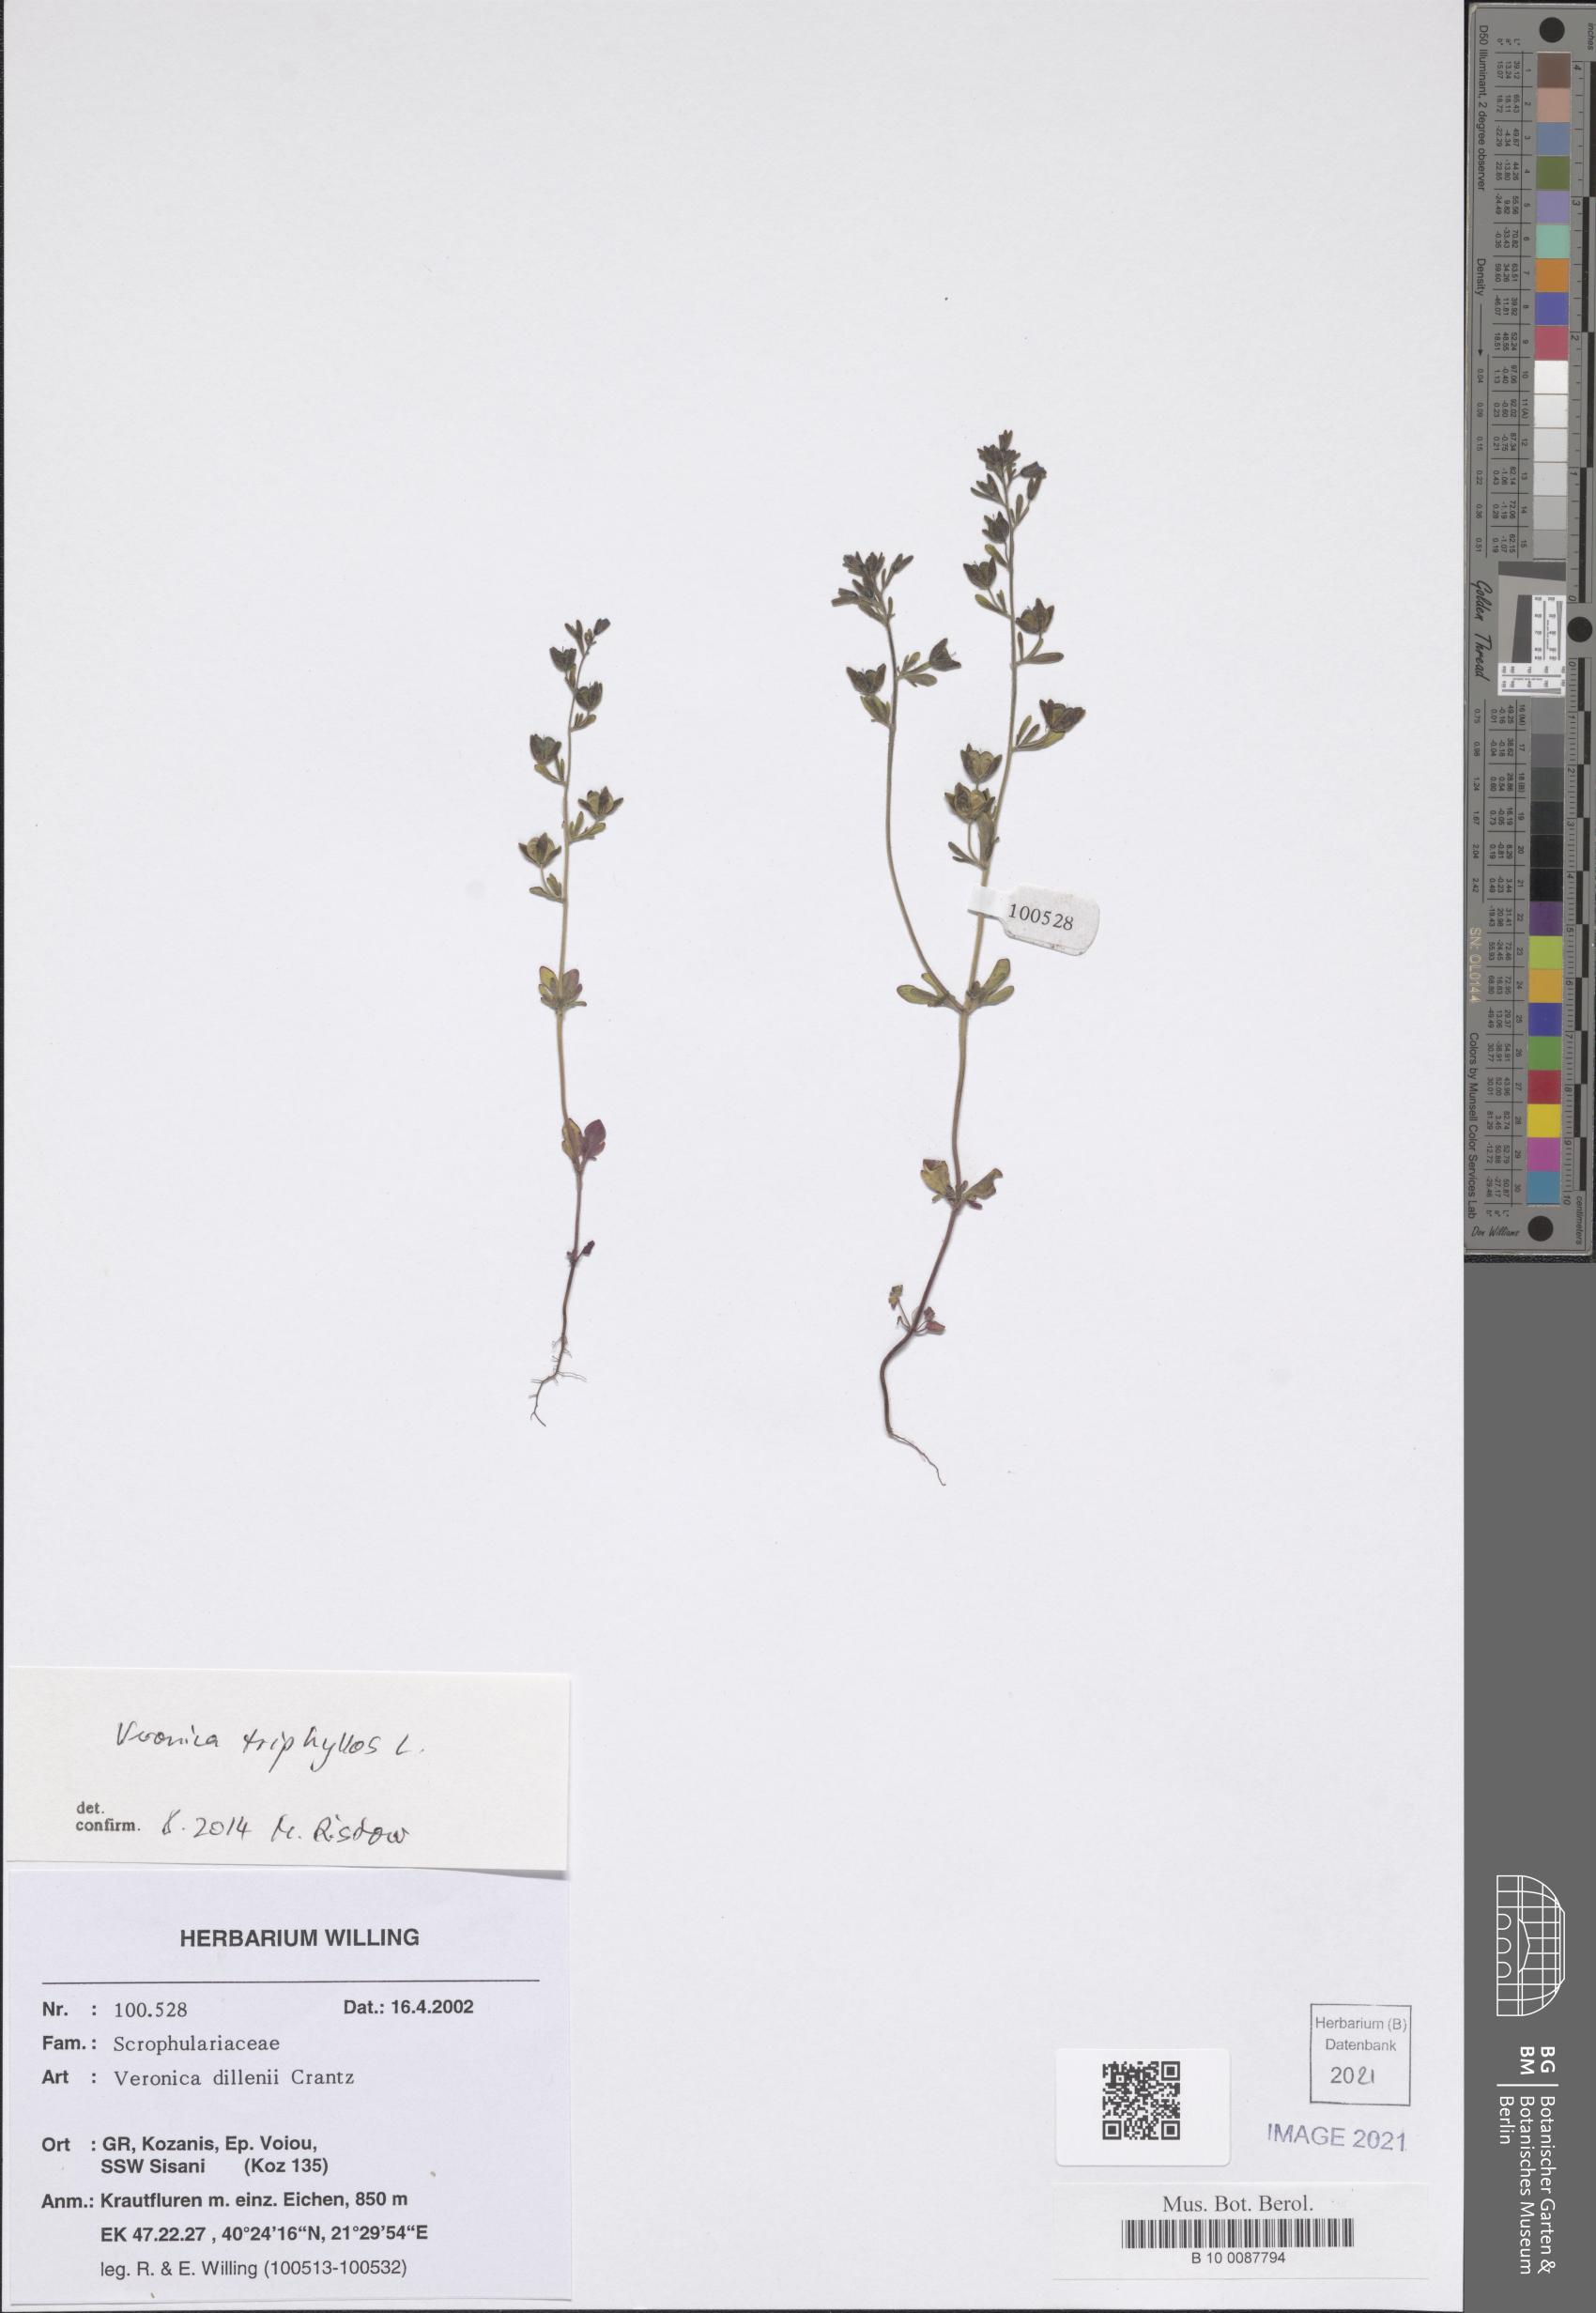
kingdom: Plantae
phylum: Tracheophyta
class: Magnoliopsida
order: Lamiales
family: Plantaginaceae
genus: Veronica
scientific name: Veronica triphyllos
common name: Fingered speedwell
